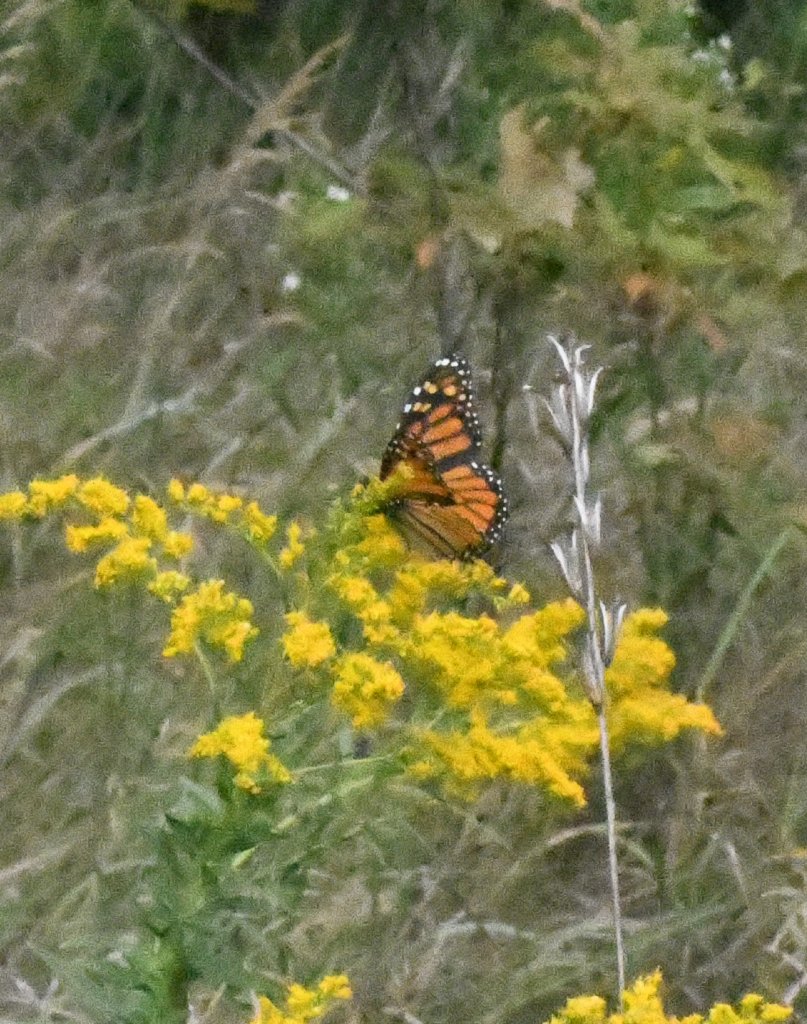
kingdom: Animalia
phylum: Arthropoda
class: Insecta
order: Lepidoptera
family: Nymphalidae
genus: Danaus
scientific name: Danaus plexippus
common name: Monarch
